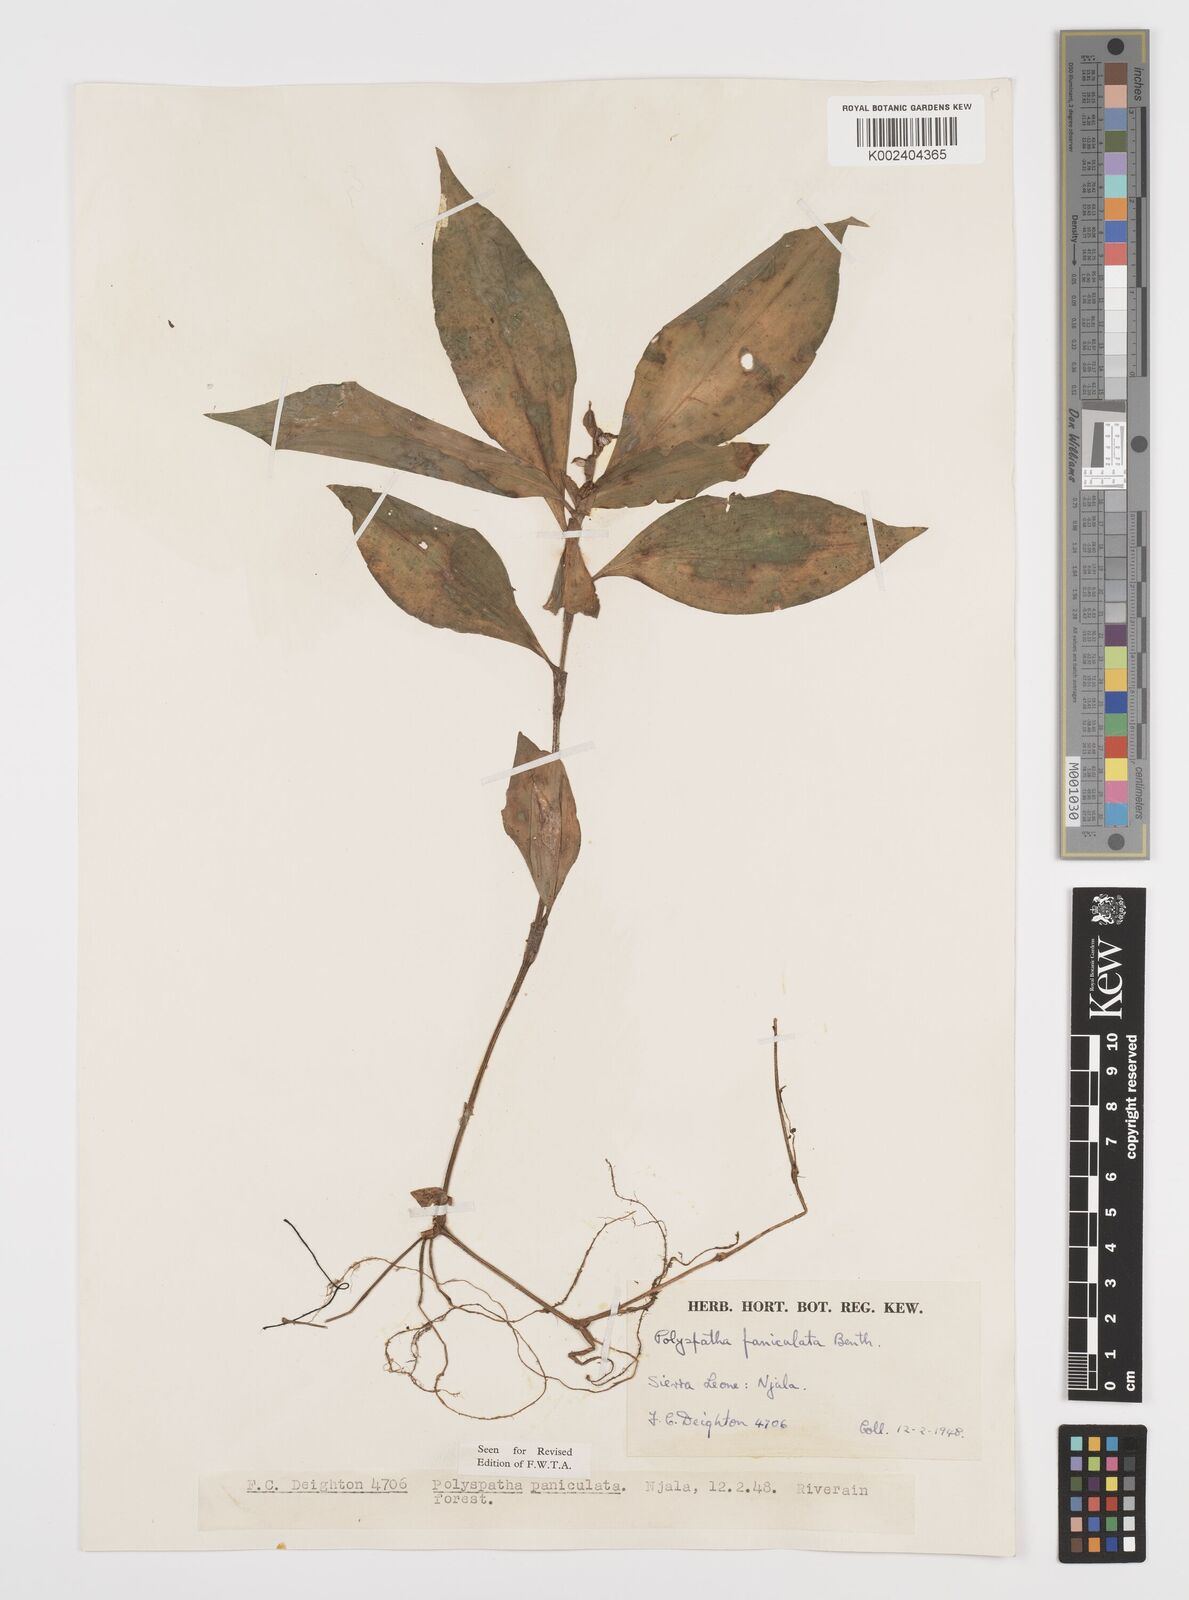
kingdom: Plantae
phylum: Tracheophyta
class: Liliopsida
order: Commelinales
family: Commelinaceae
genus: Polyspatha
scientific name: Polyspatha paniculata
